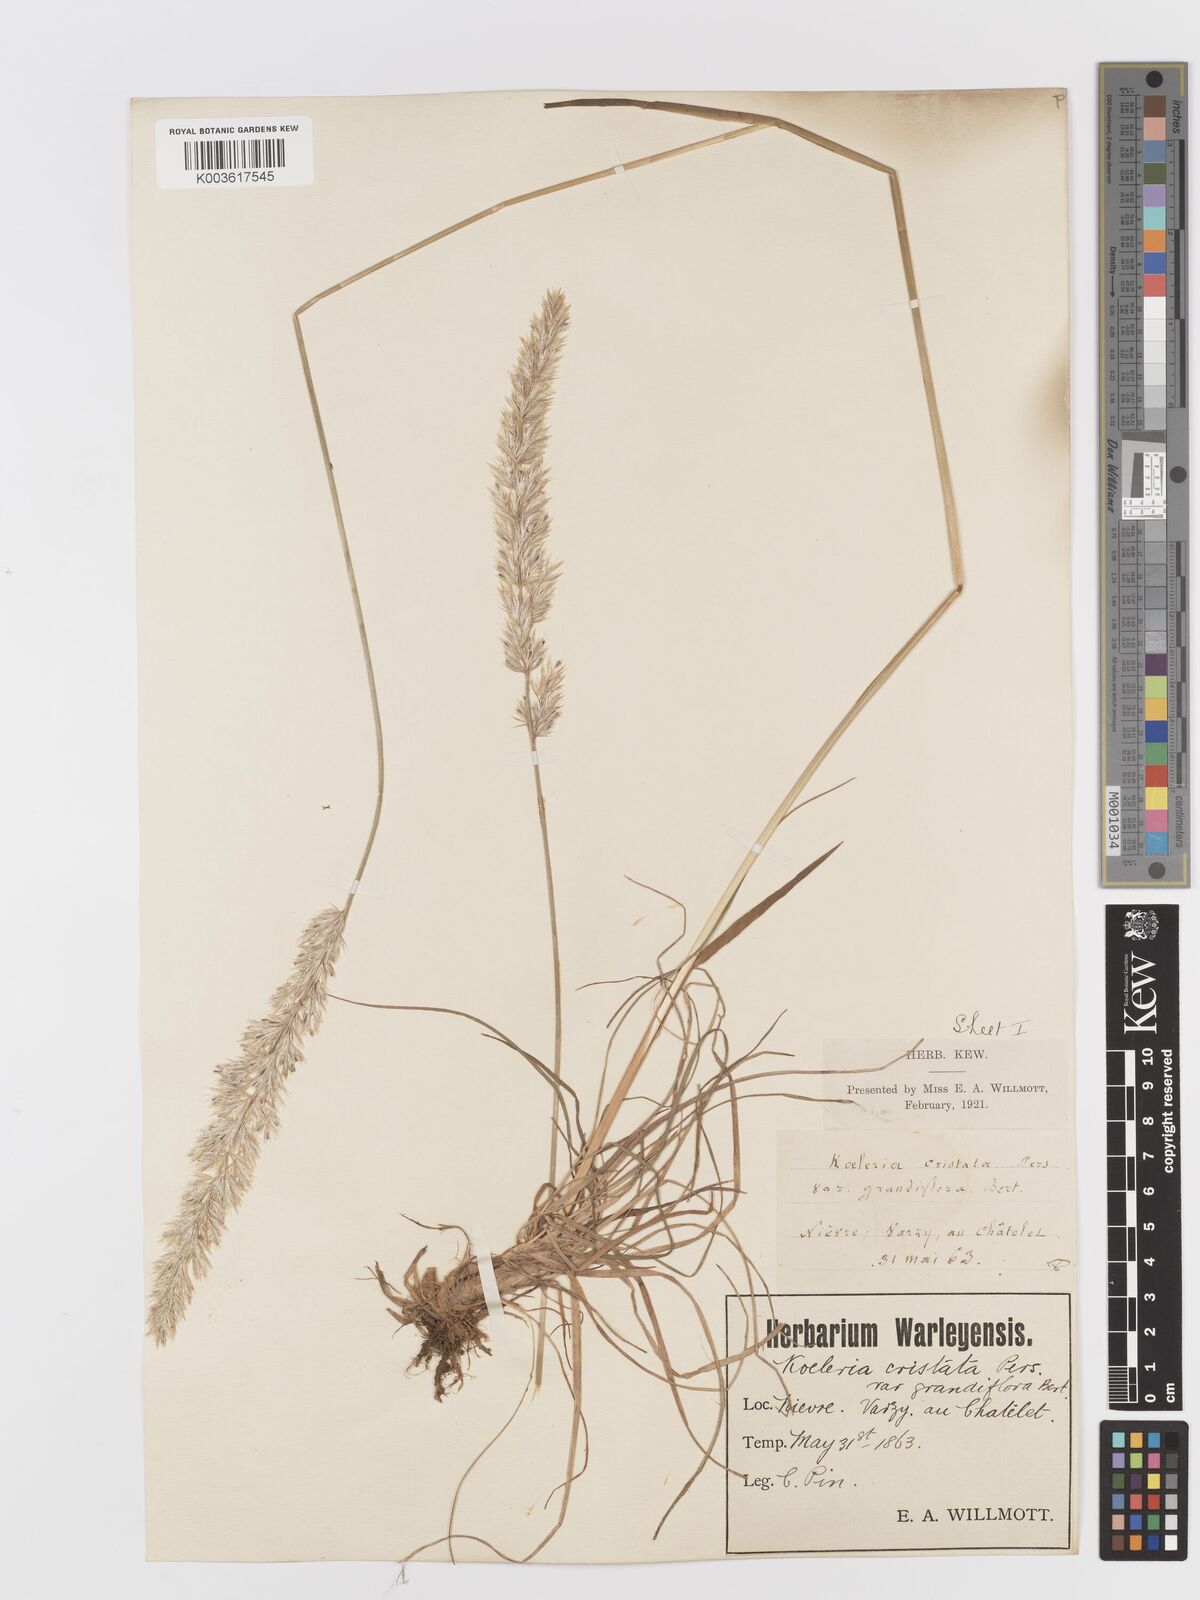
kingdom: Plantae
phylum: Tracheophyta
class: Liliopsida
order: Poales
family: Poaceae
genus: Koeleria
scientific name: Koeleria
